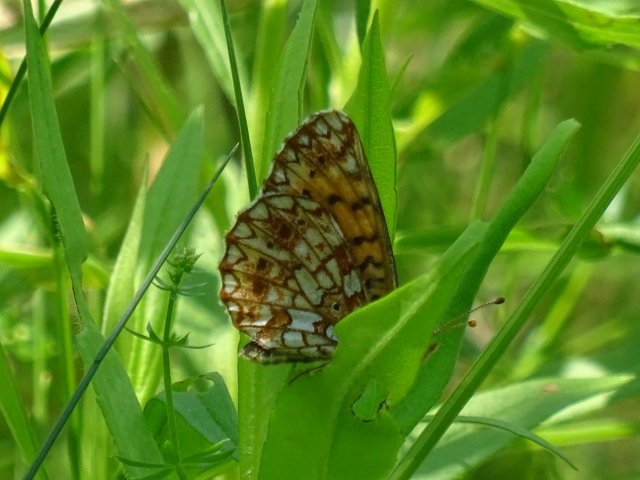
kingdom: Animalia
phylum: Arthropoda
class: Insecta
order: Lepidoptera
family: Nymphalidae
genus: Boloria
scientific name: Boloria selene
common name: Silver-bordered Fritillary
